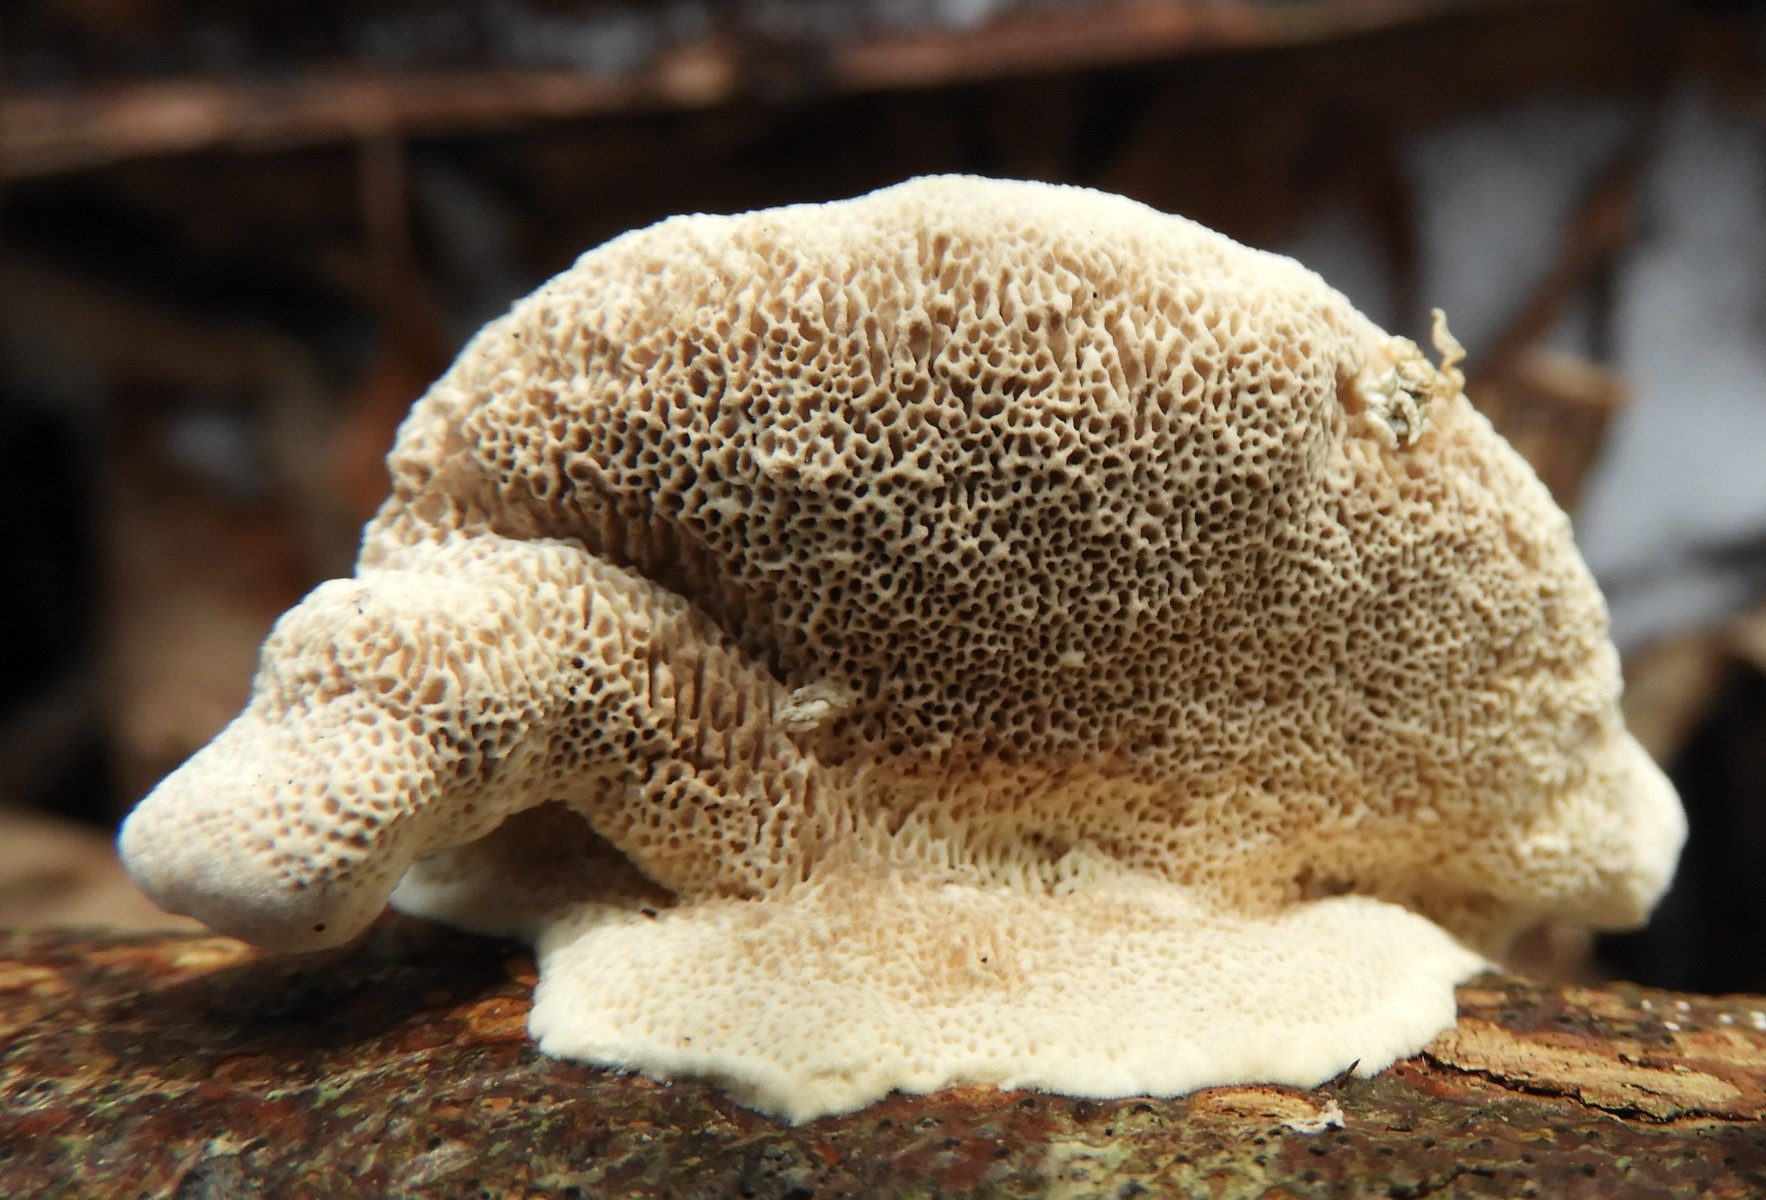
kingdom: Fungi
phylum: Basidiomycota
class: Agaricomycetes
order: Polyporales
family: Polyporaceae
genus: Trametes
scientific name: Trametes hirsuta
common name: håret læderporesvamp
